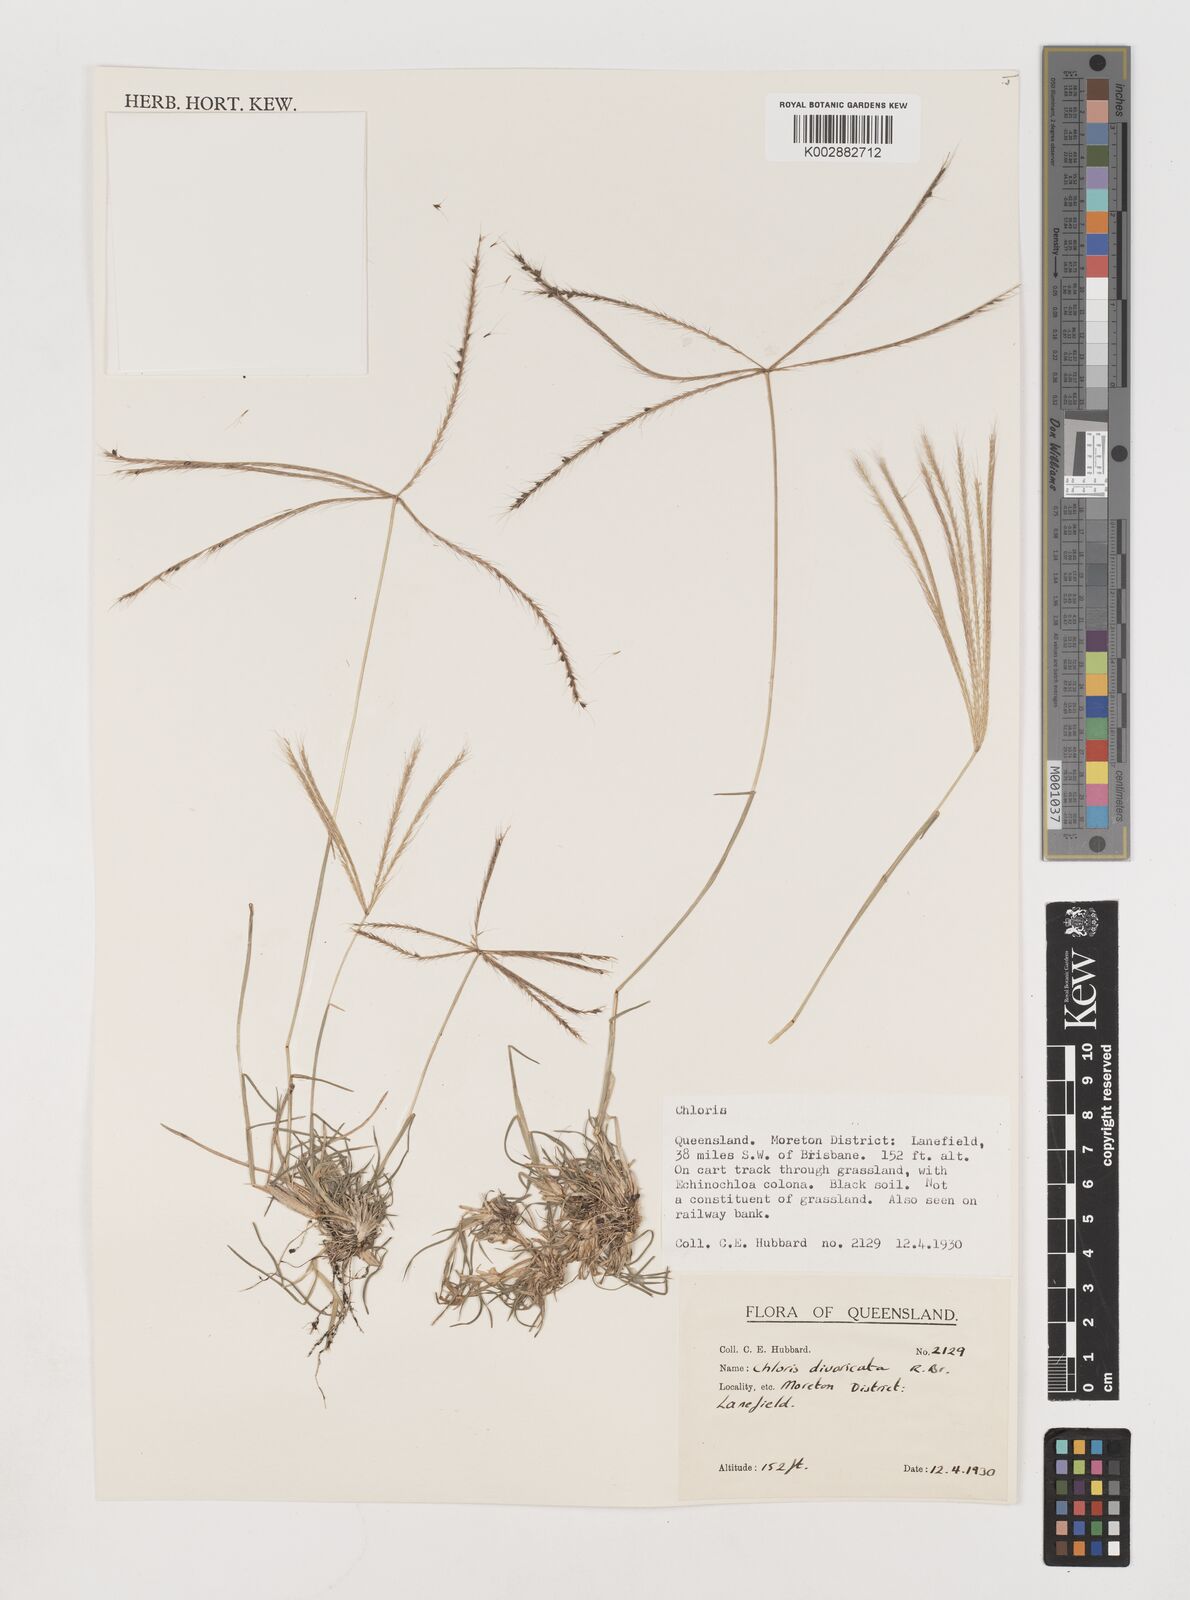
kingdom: Plantae
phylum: Tracheophyta
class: Liliopsida
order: Poales
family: Poaceae
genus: Chloris
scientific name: Chloris divaricata
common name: Spreading windmill grass
